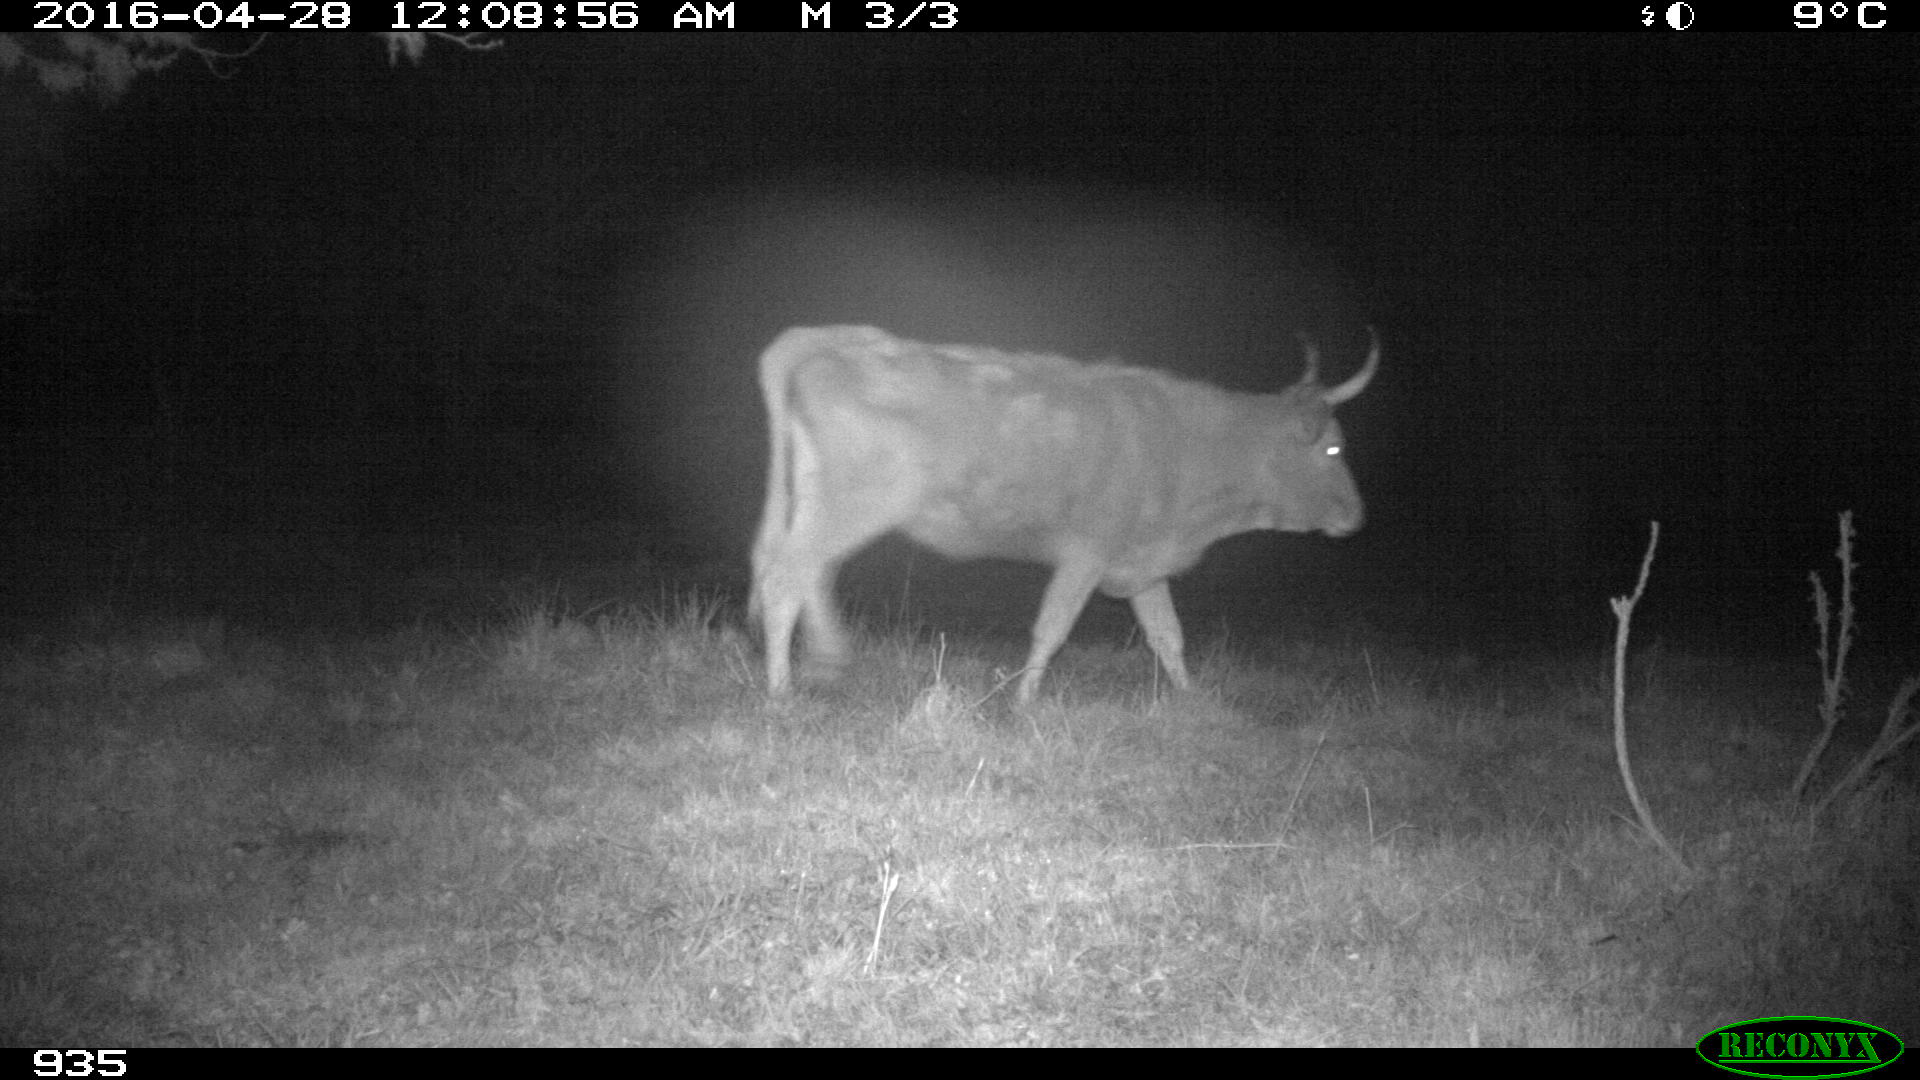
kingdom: Animalia
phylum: Chordata
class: Mammalia
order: Artiodactyla
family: Bovidae
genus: Bos
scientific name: Bos taurus
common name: Domesticated cattle
